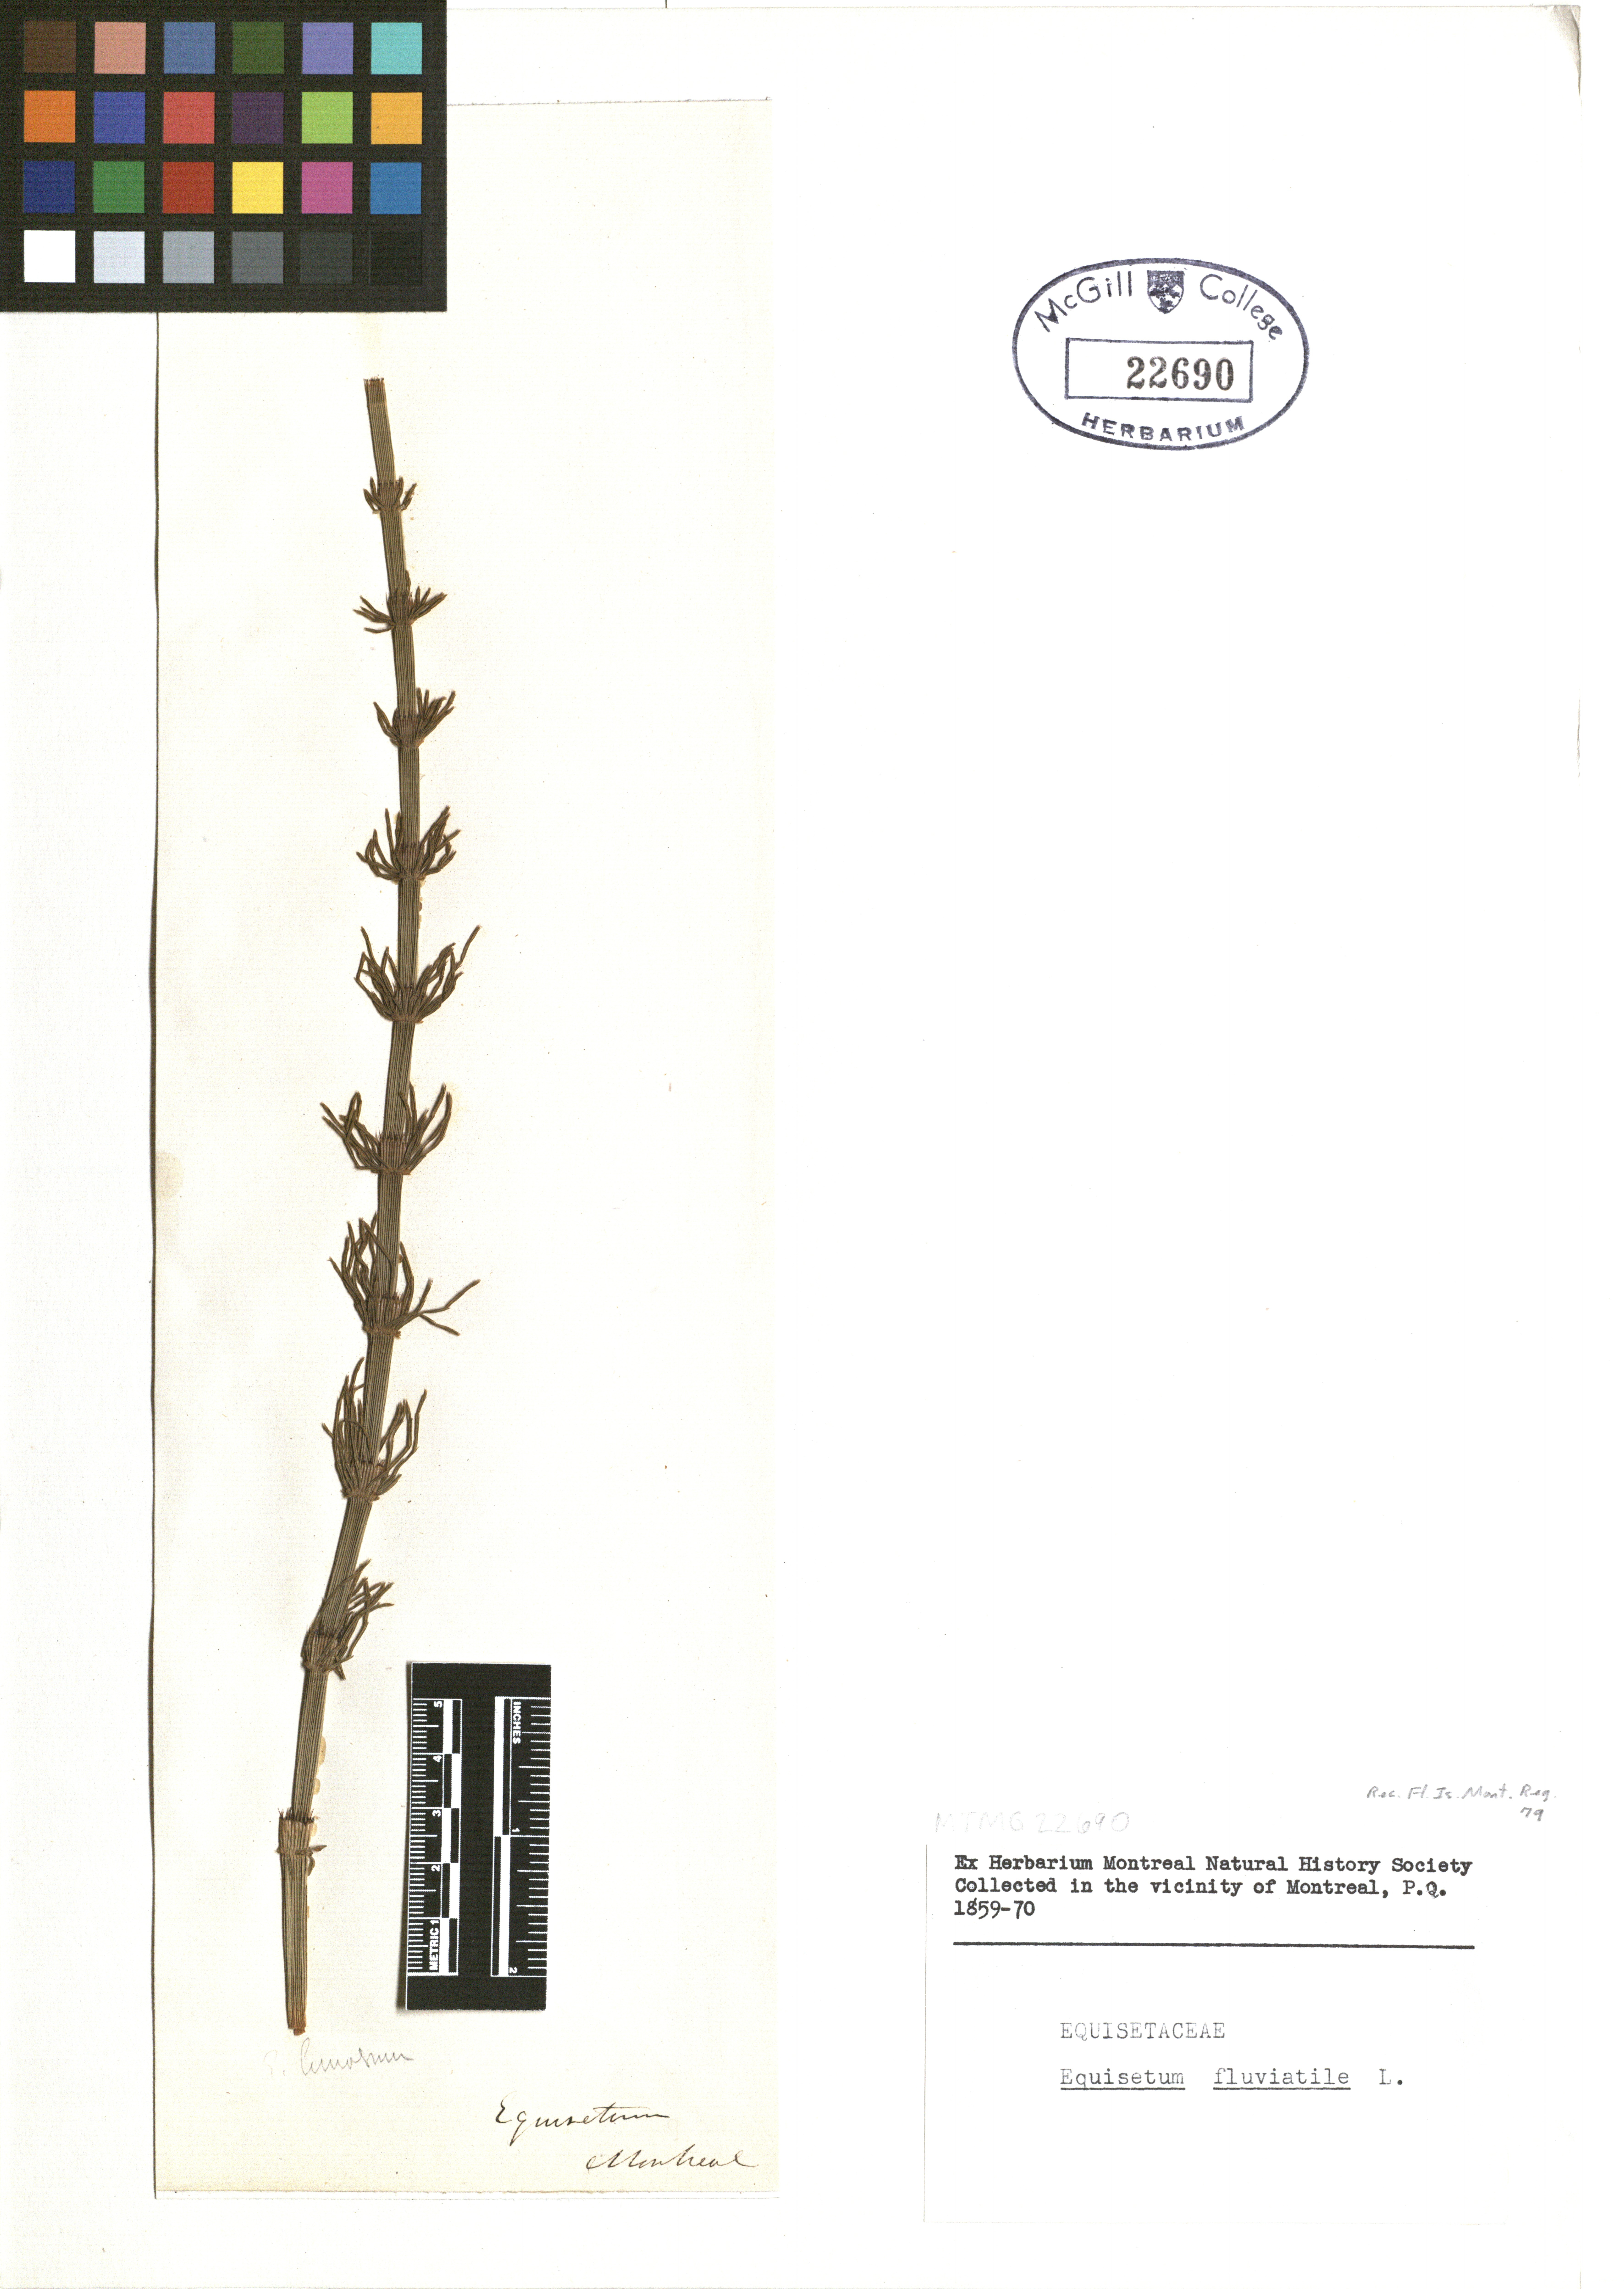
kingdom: Plantae
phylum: Tracheophyta
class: Polypodiopsida
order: Equisetales
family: Equisetaceae
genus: Equisetum
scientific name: Equisetum fluviatile
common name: Water horsetail
